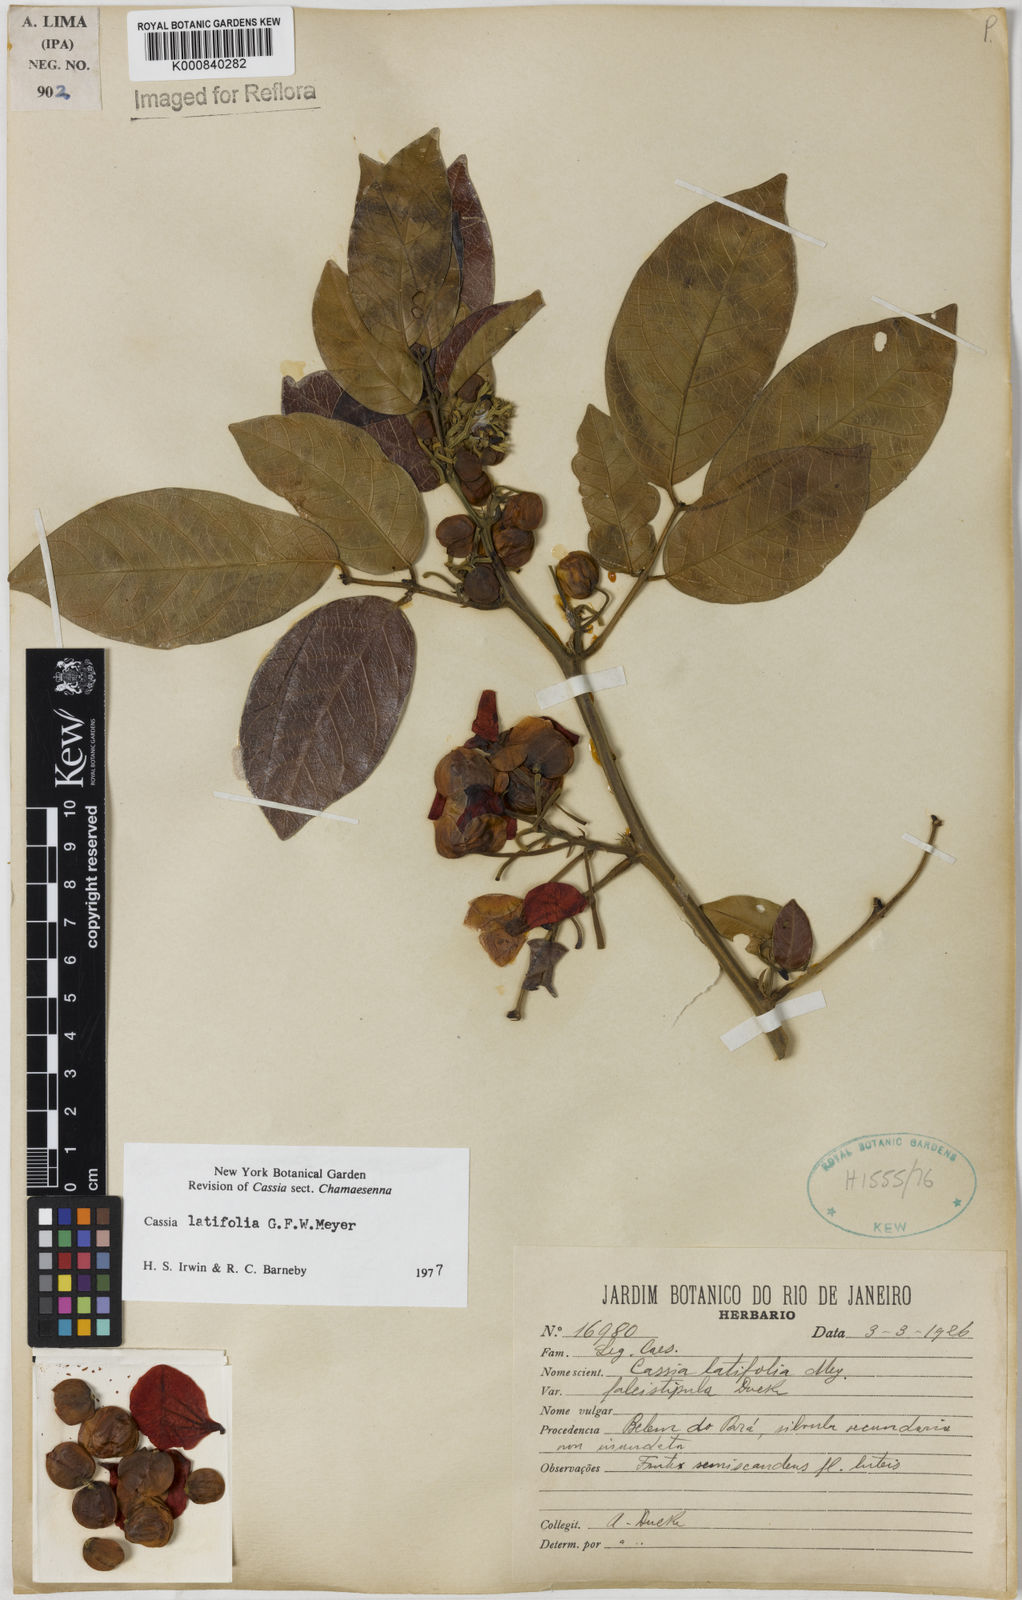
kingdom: Plantae
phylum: Tracheophyta
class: Magnoliopsida
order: Fabales
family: Fabaceae
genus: Senna
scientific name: Senna latifolia
